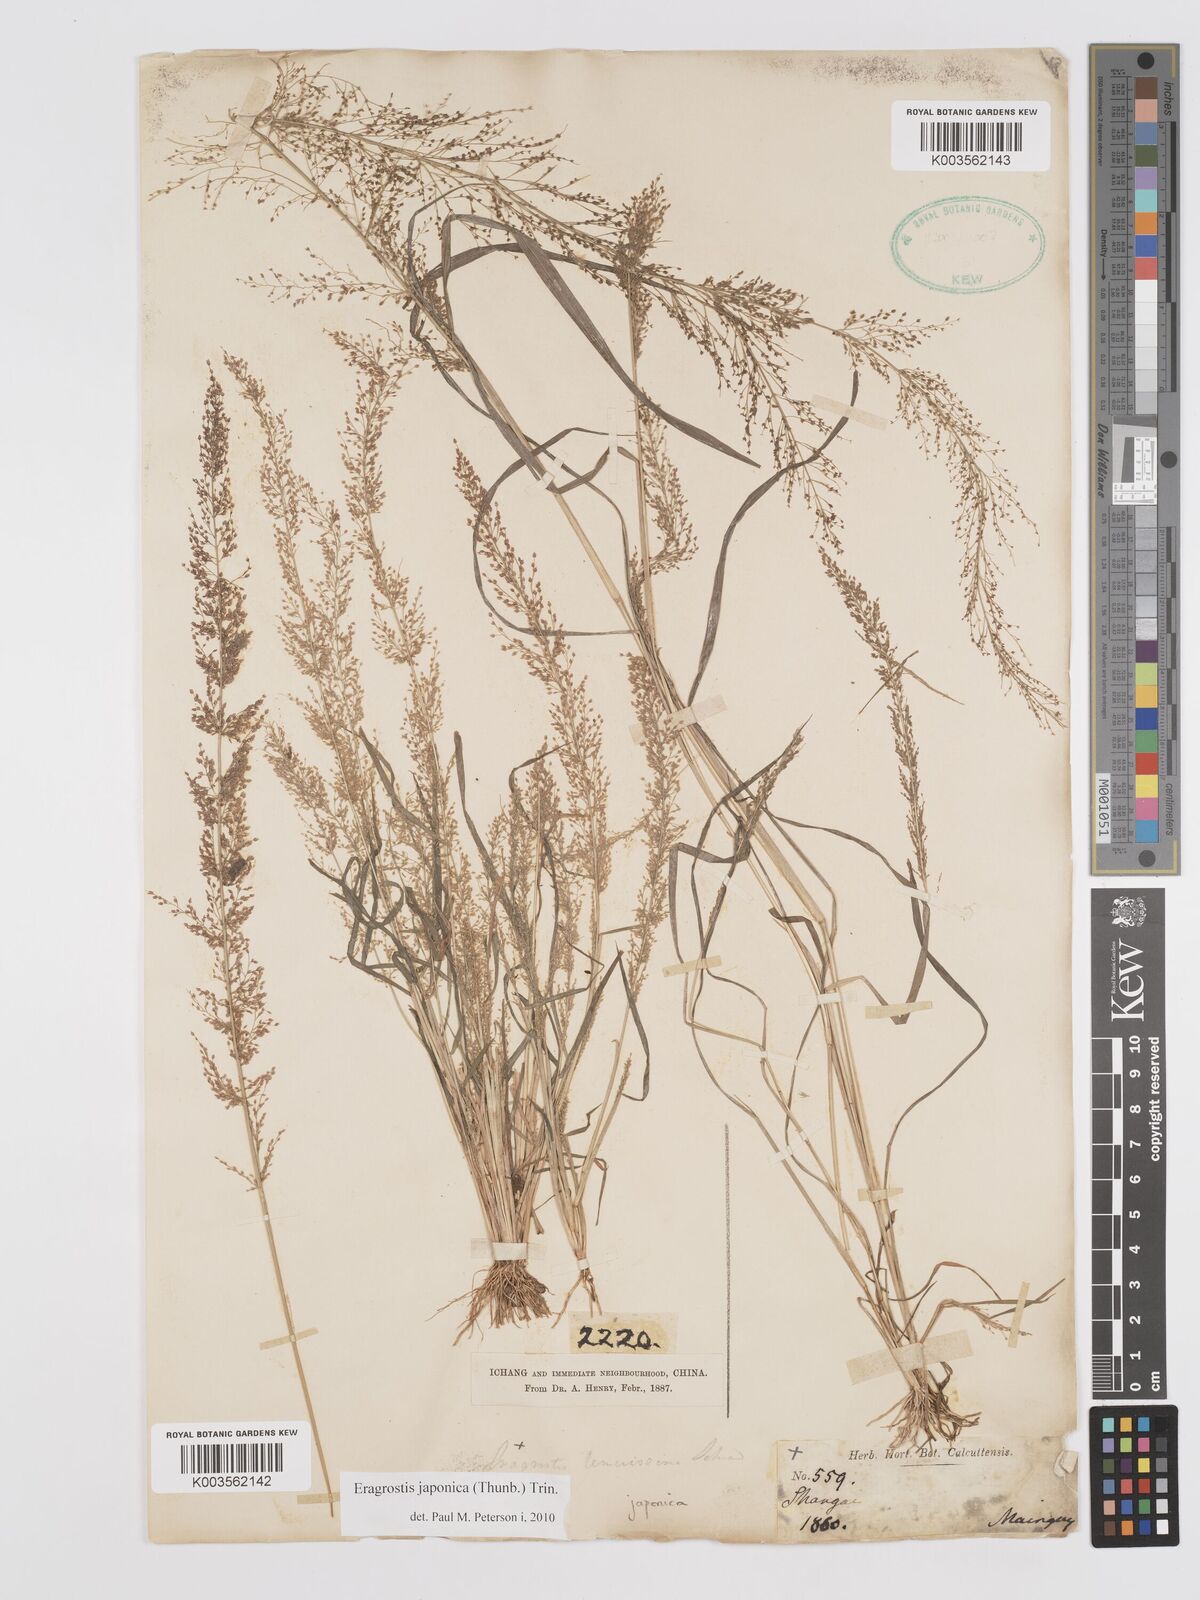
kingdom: Plantae
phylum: Tracheophyta
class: Liliopsida
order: Poales
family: Poaceae
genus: Eragrostis
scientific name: Eragrostis japonica
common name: Pond lovegrass
